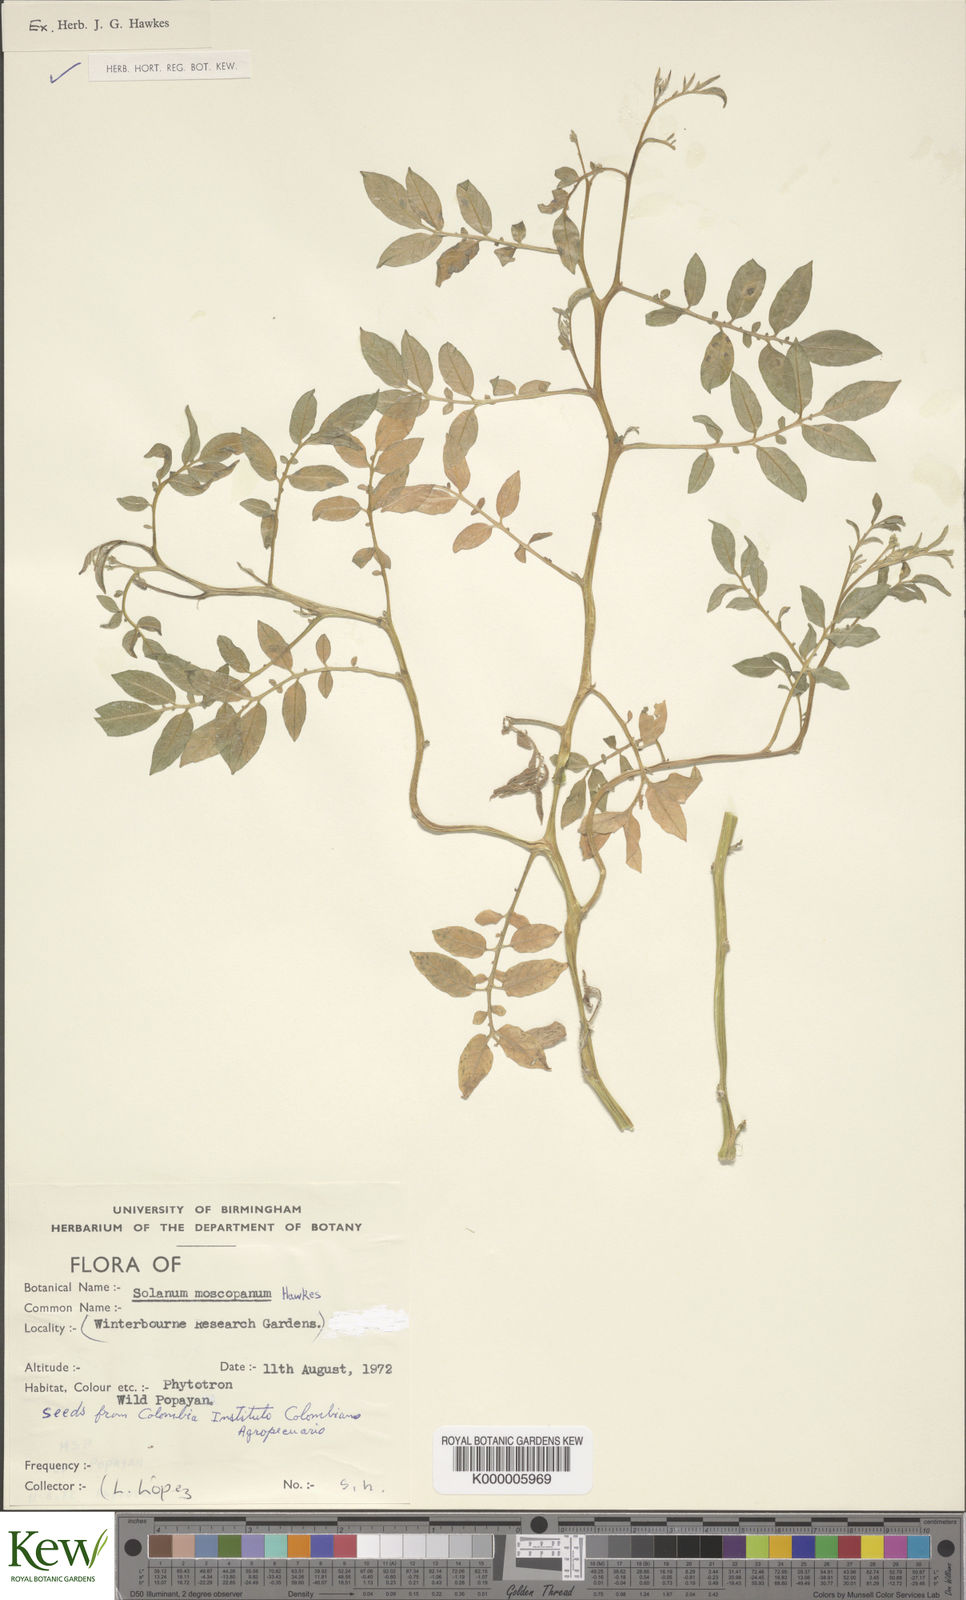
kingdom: Plantae
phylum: Tracheophyta
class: Magnoliopsida
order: Solanales
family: Solanaceae
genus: Solanum
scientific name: Solanum colombianum
